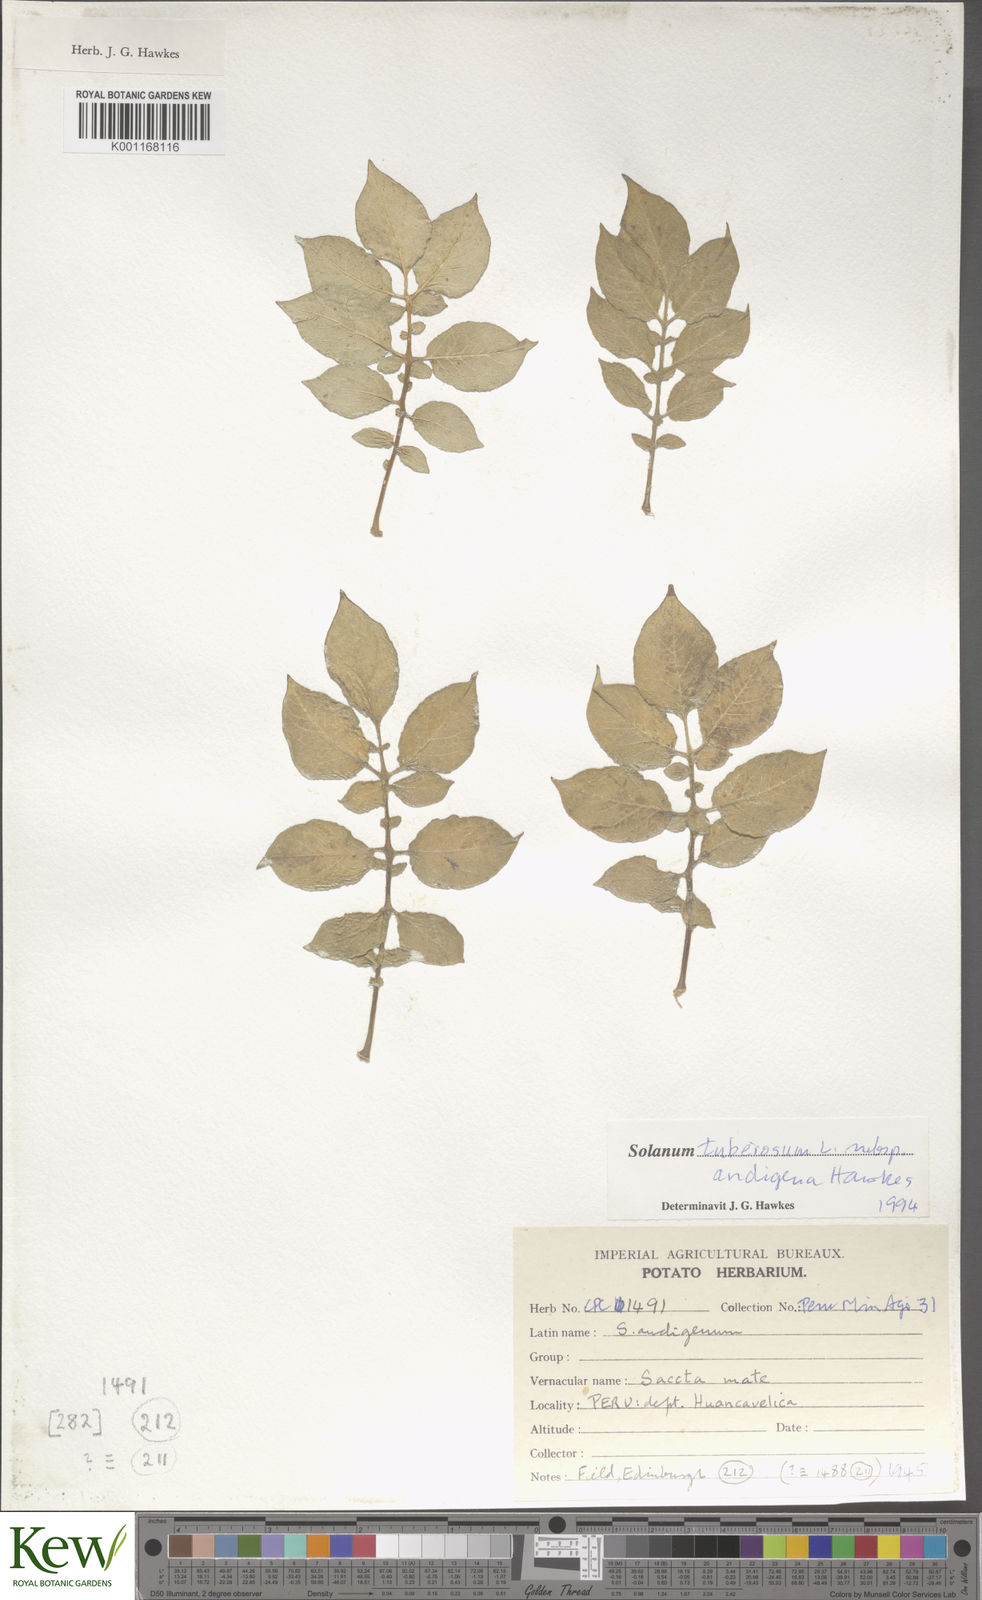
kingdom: Plantae
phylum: Tracheophyta
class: Magnoliopsida
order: Solanales
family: Solanaceae
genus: Solanum
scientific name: Solanum tuberosum
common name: Potato
